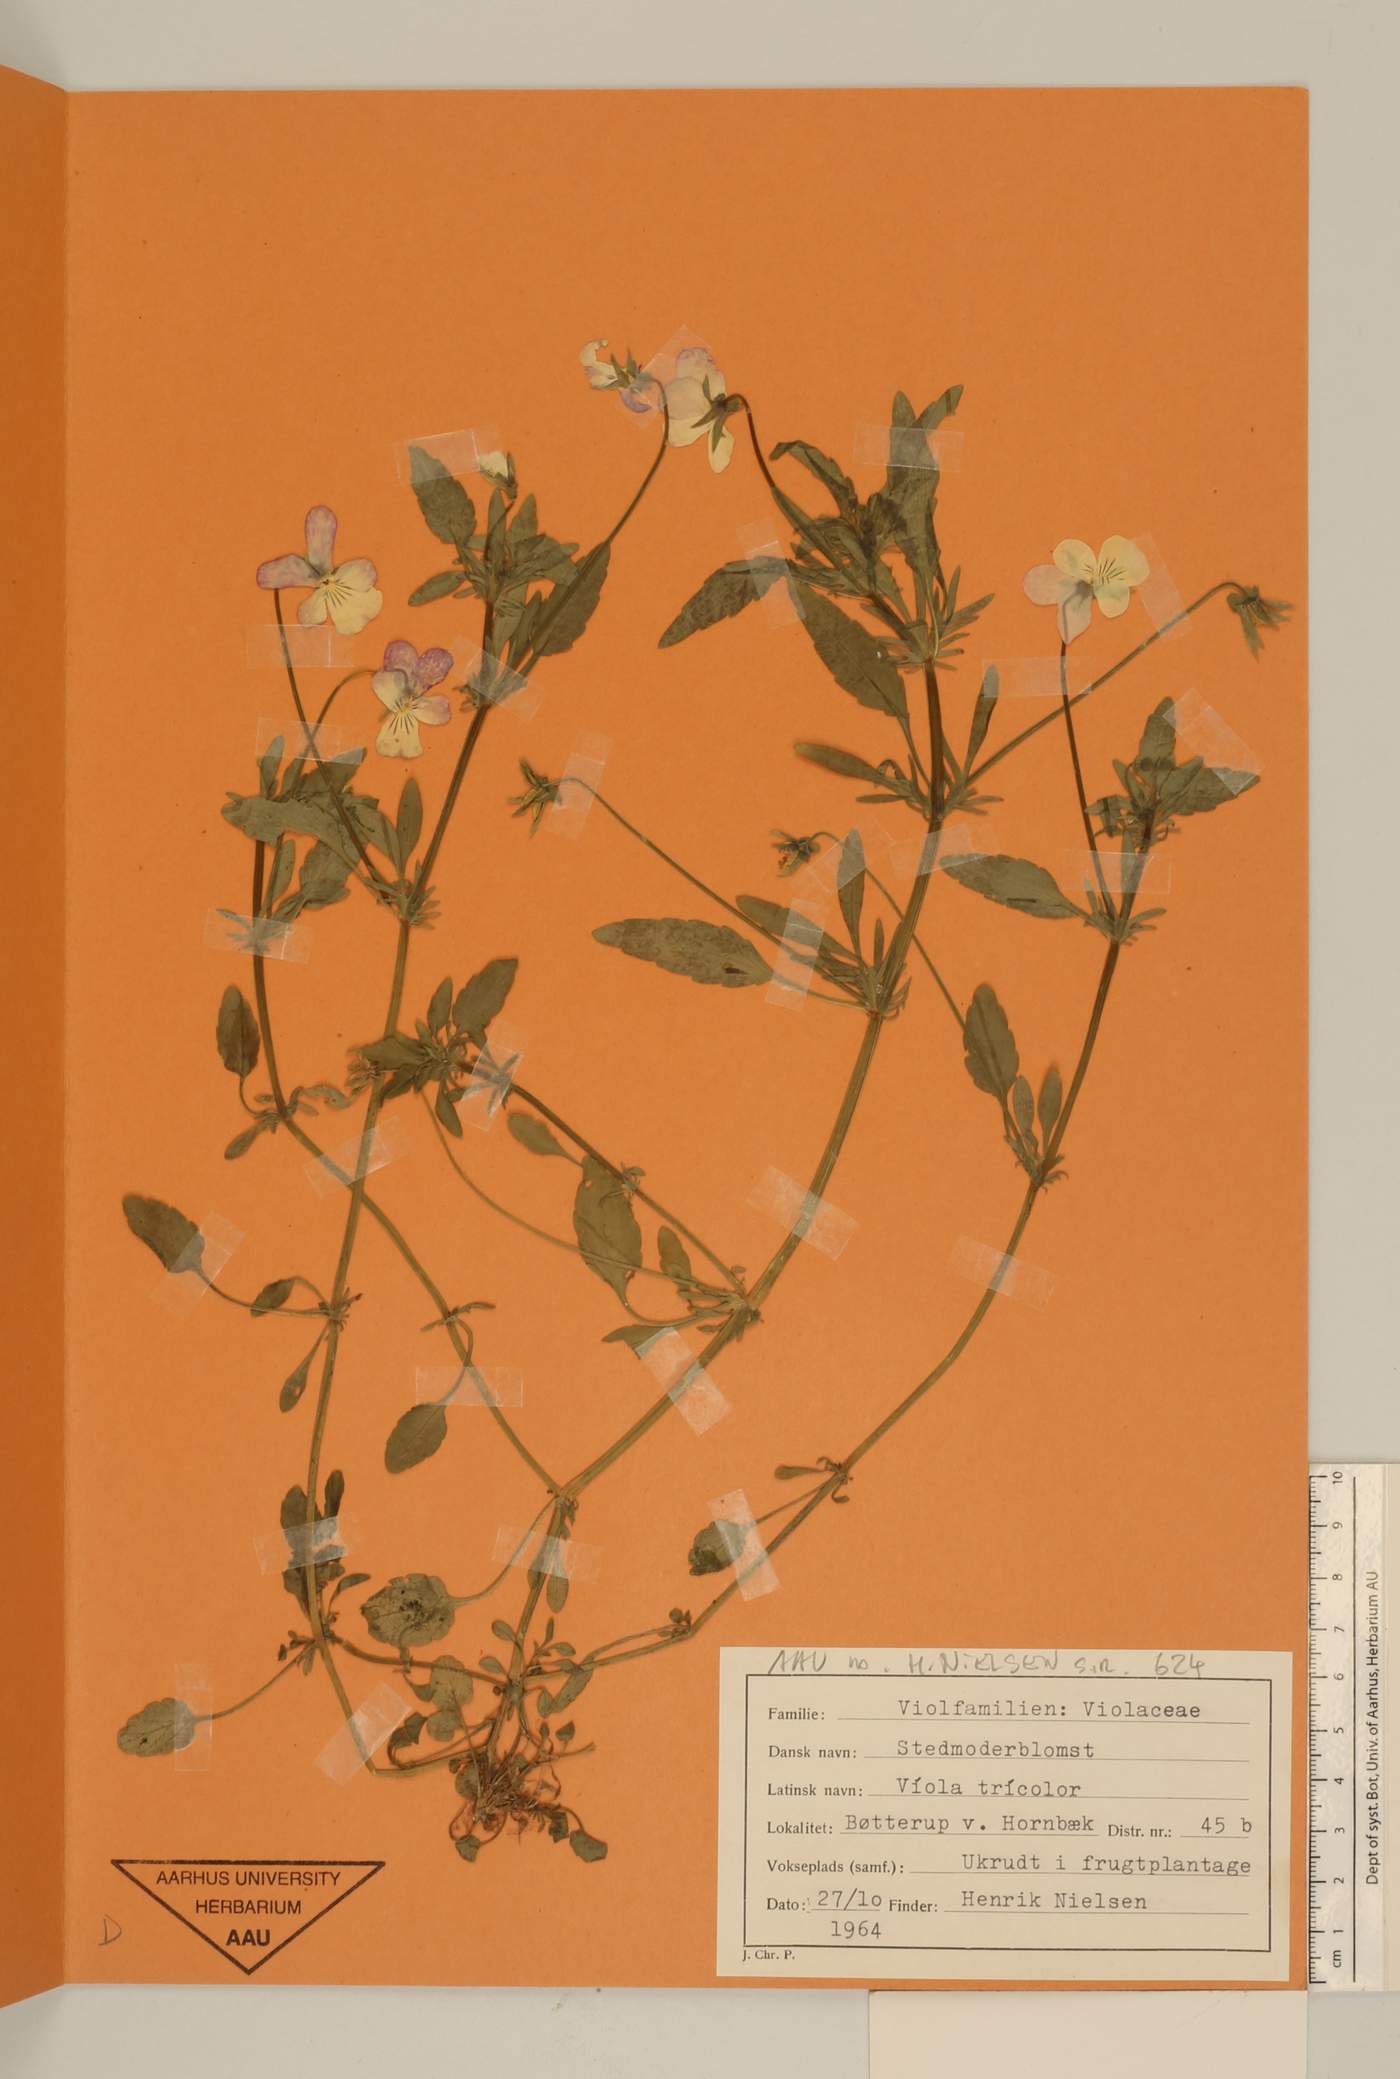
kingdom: Plantae
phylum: Tracheophyta
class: Magnoliopsida
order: Malpighiales
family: Violaceae
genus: Viola
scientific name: Viola tricolor
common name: Pansy
